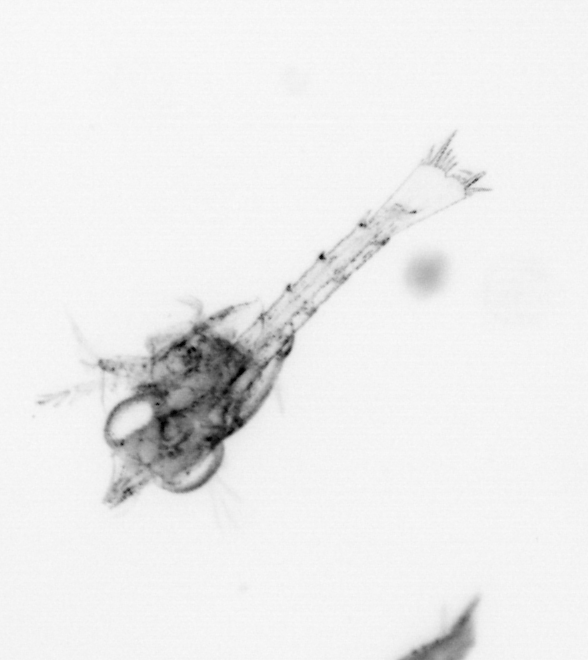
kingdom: Animalia
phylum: Arthropoda
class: Malacostraca
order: Decapoda
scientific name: Decapoda
